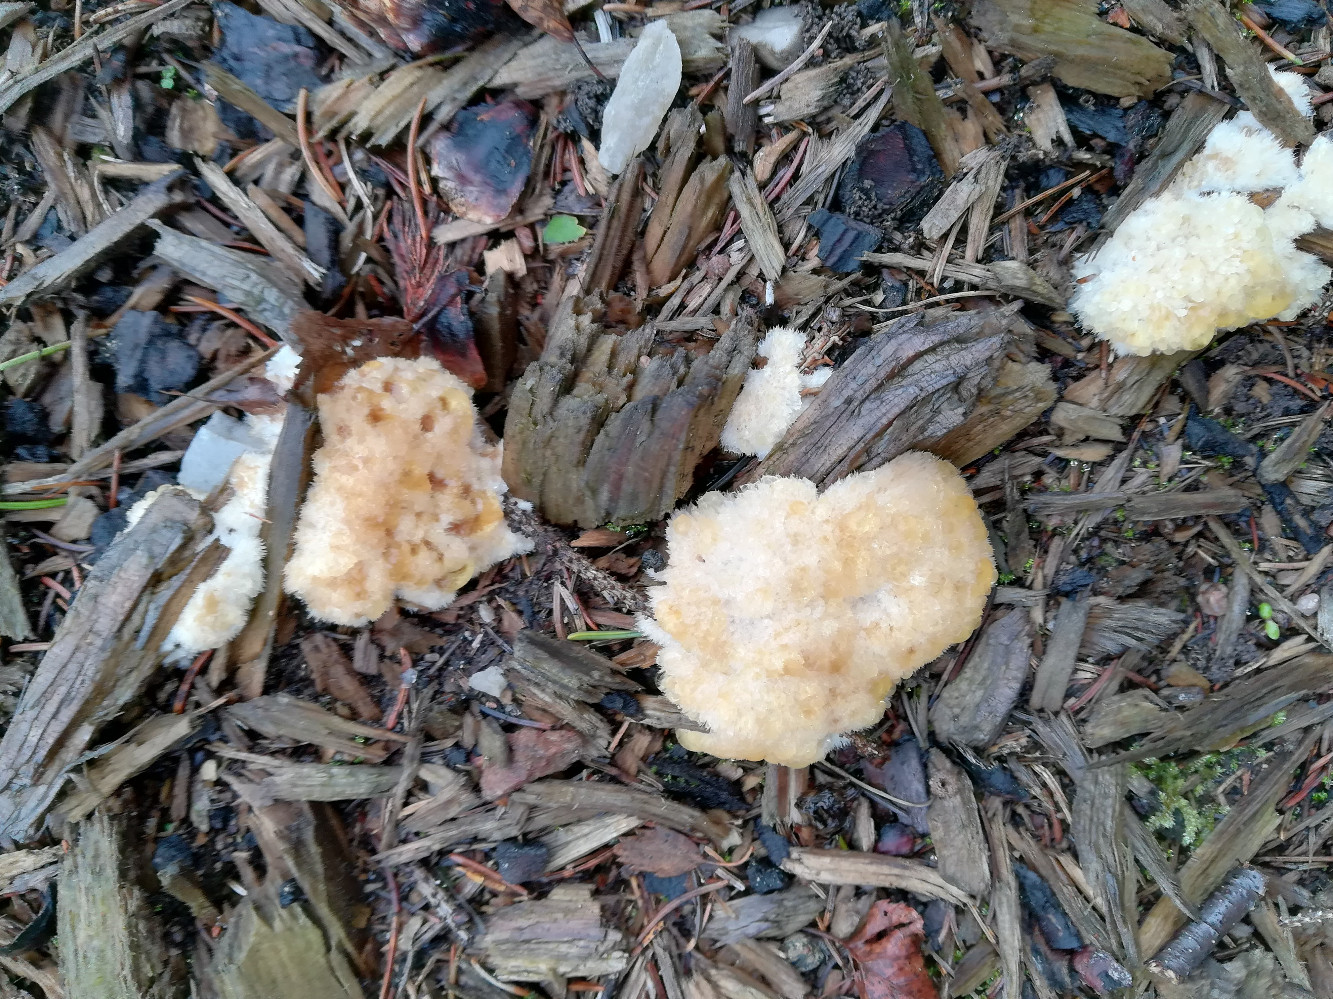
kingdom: Fungi
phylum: Basidiomycota
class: Agaricomycetes
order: Polyporales
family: Dacryobolaceae
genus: Postia
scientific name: Postia ptychogaster
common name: støvende kødporesvamp
